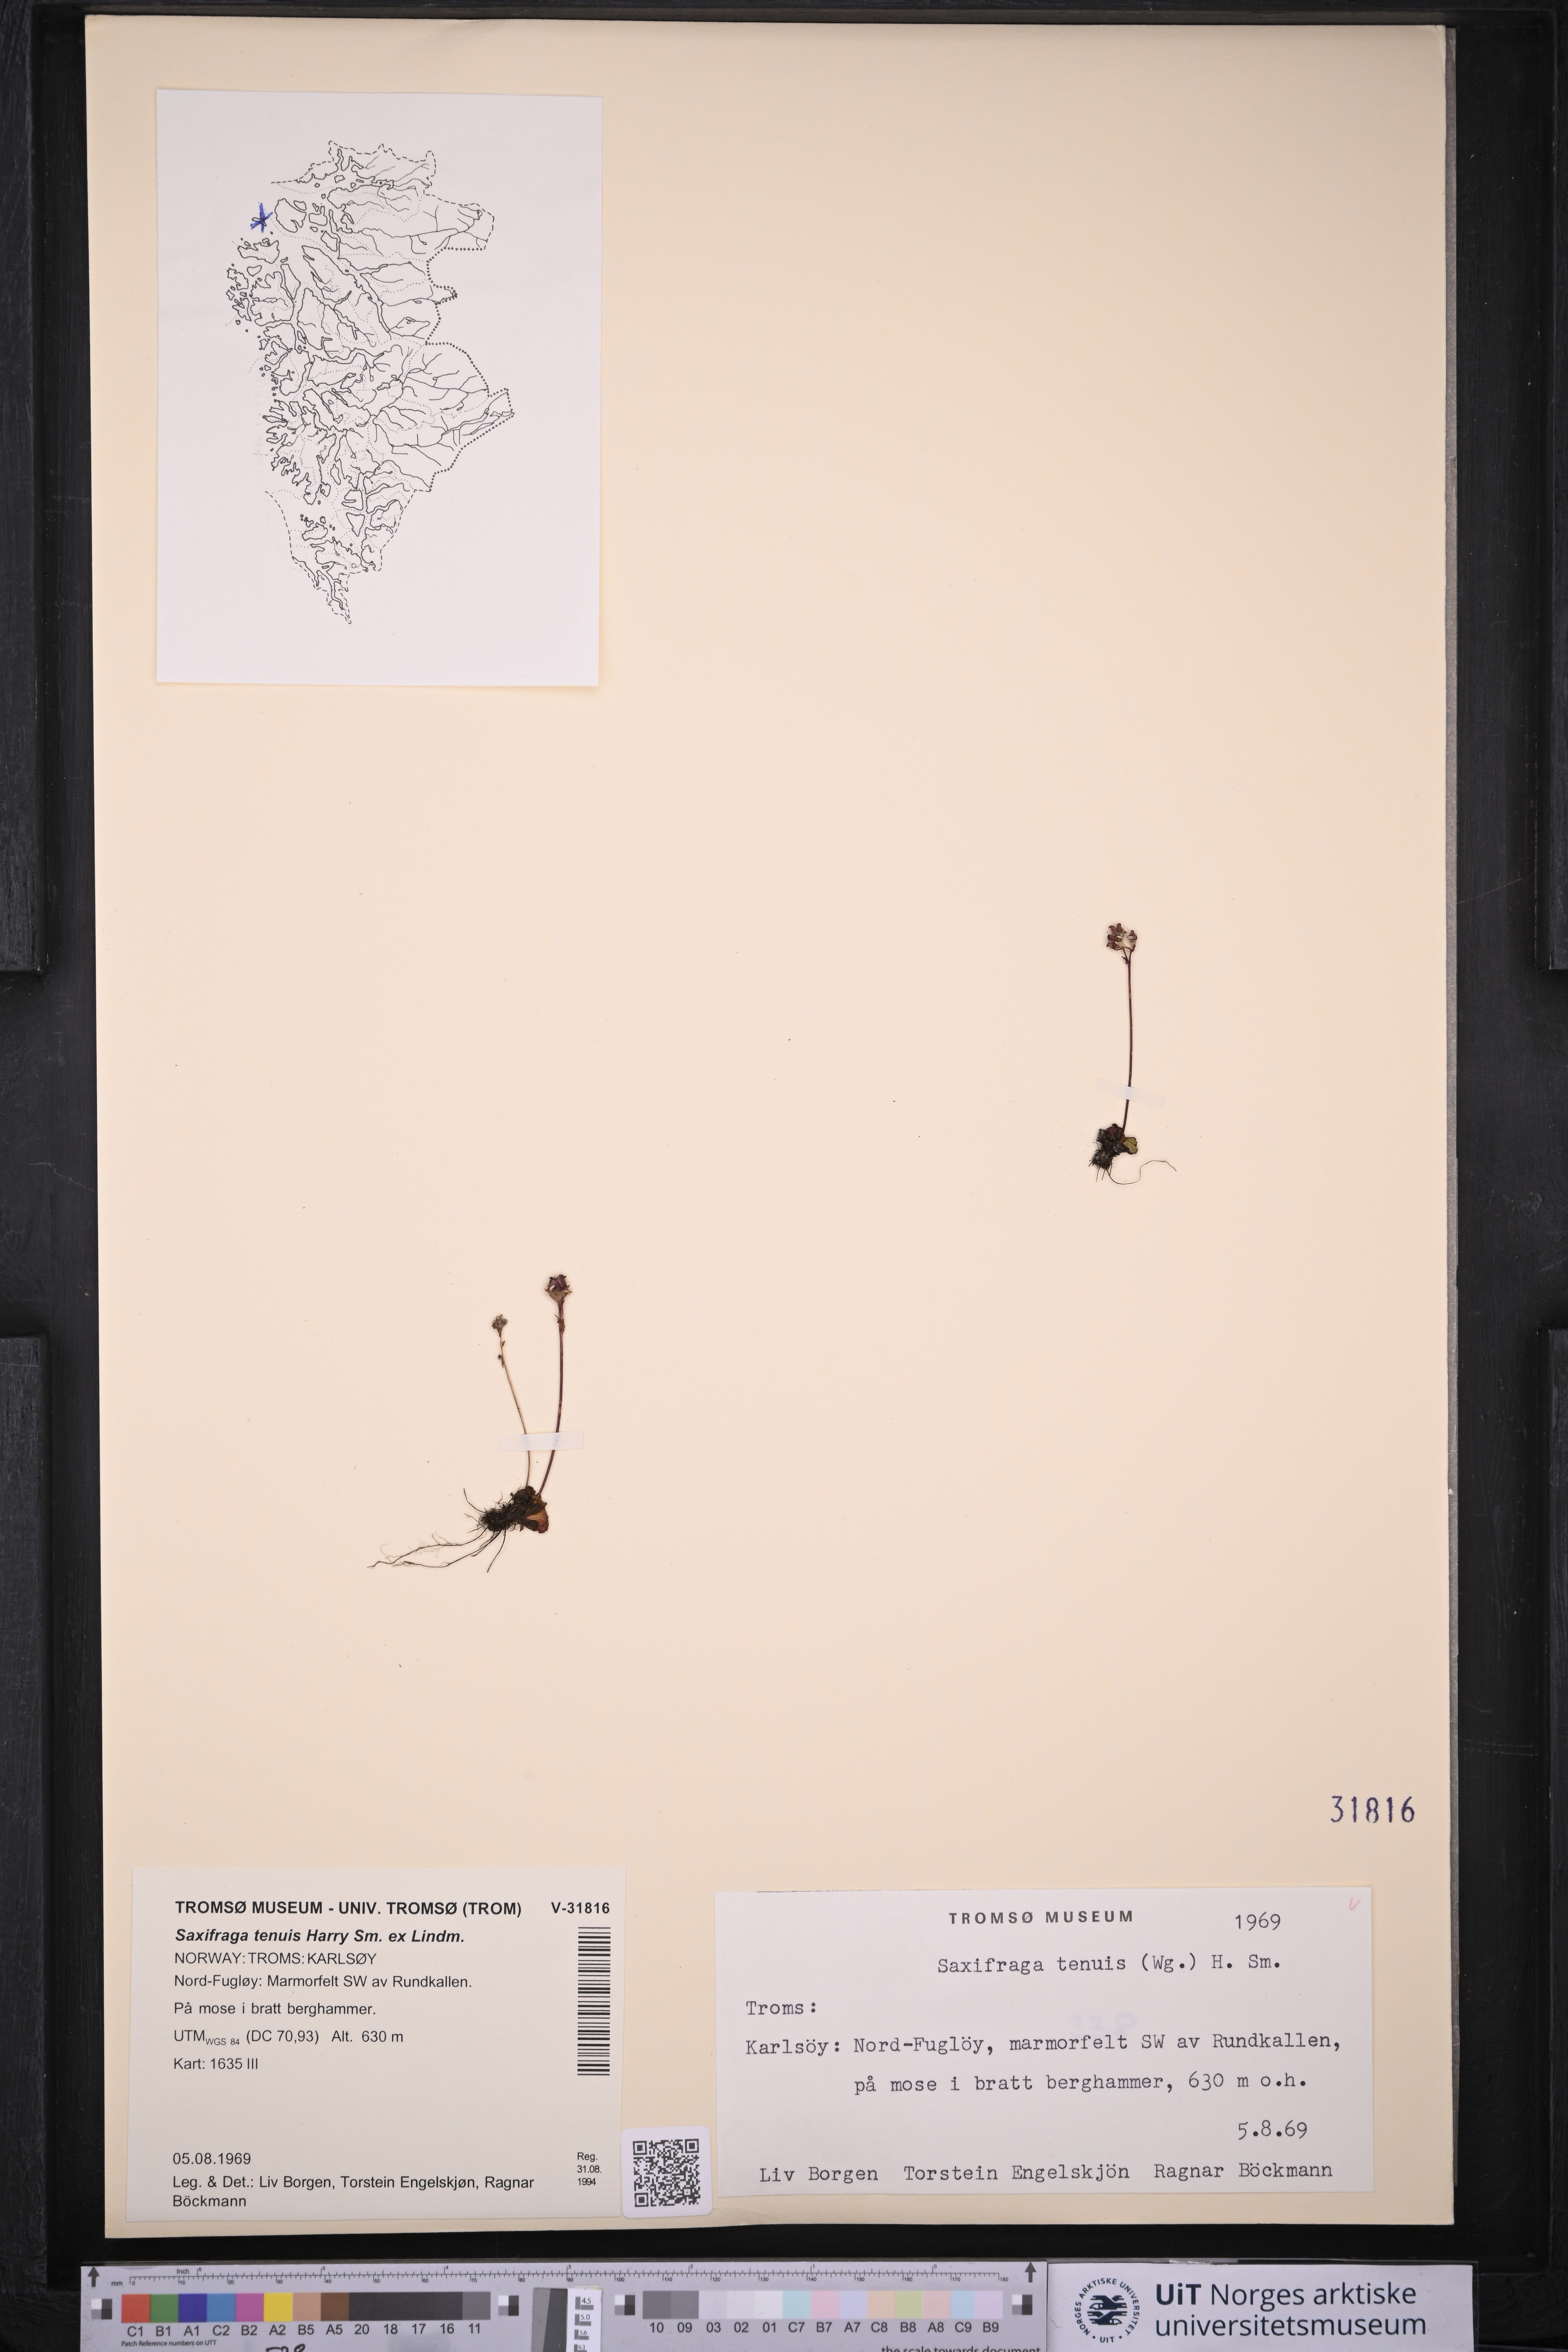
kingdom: Plantae
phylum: Tracheophyta
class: Magnoliopsida
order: Saxifragales
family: Saxifragaceae
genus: Micranthes
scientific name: Micranthes tenuis
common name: Ottertail pass saxifrage
